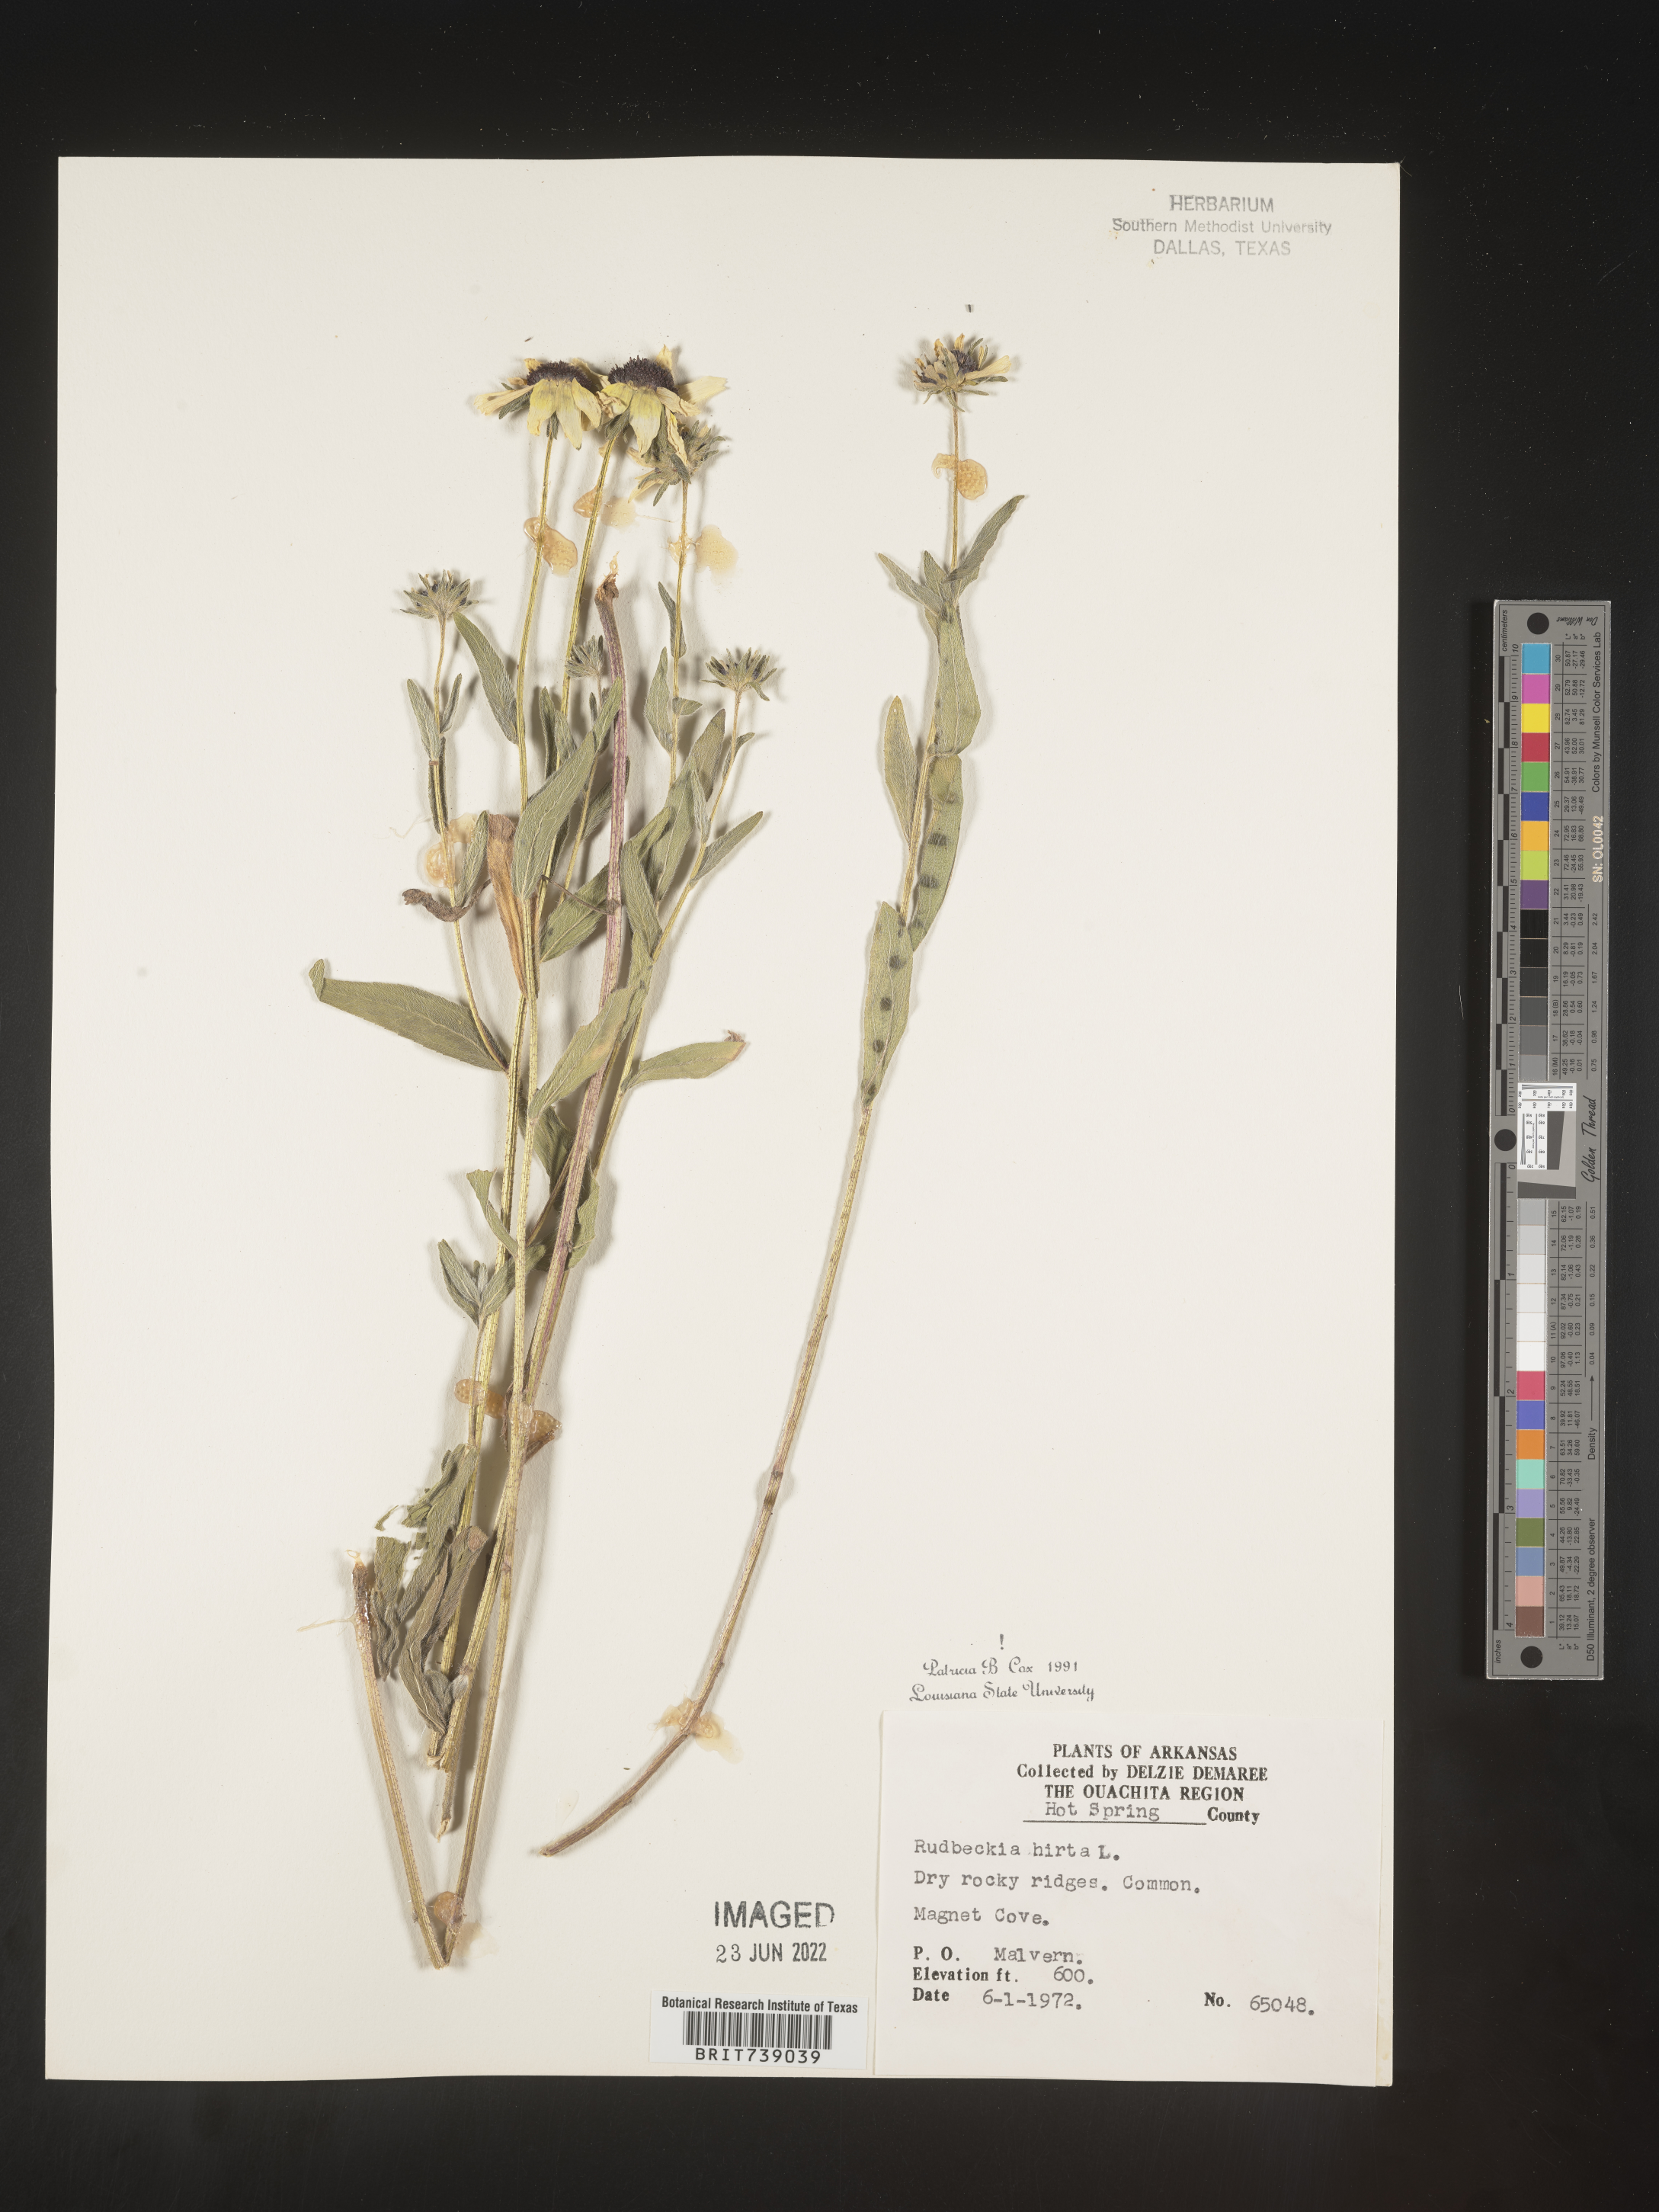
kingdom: Plantae
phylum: Tracheophyta
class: Magnoliopsida
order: Asterales
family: Asteraceae
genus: Rudbeckia
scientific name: Rudbeckia hirta
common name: Black-eyed-susan
